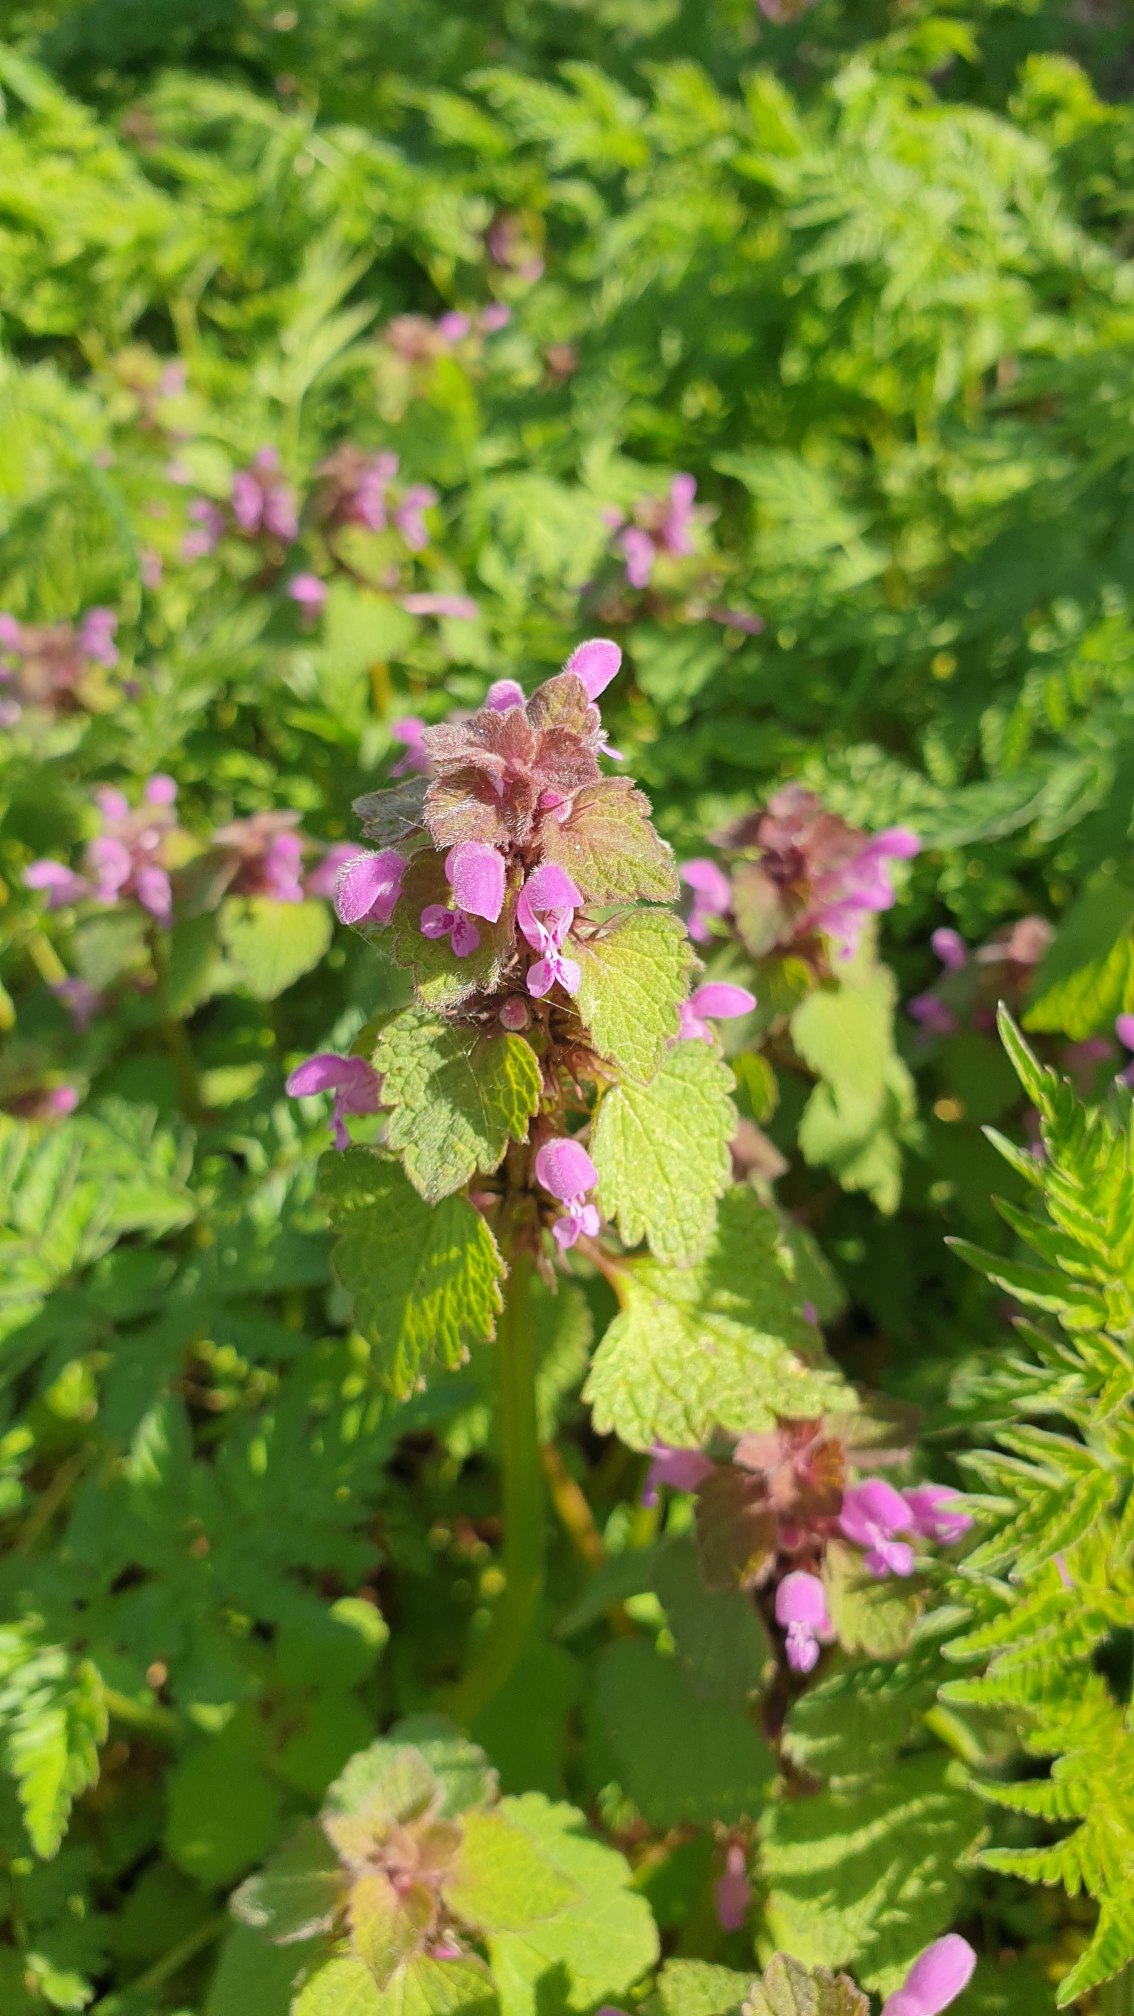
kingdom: Plantae
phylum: Tracheophyta
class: Magnoliopsida
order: Lamiales
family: Lamiaceae
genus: Lamium
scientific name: Lamium purpureum
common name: Rød tvetand
